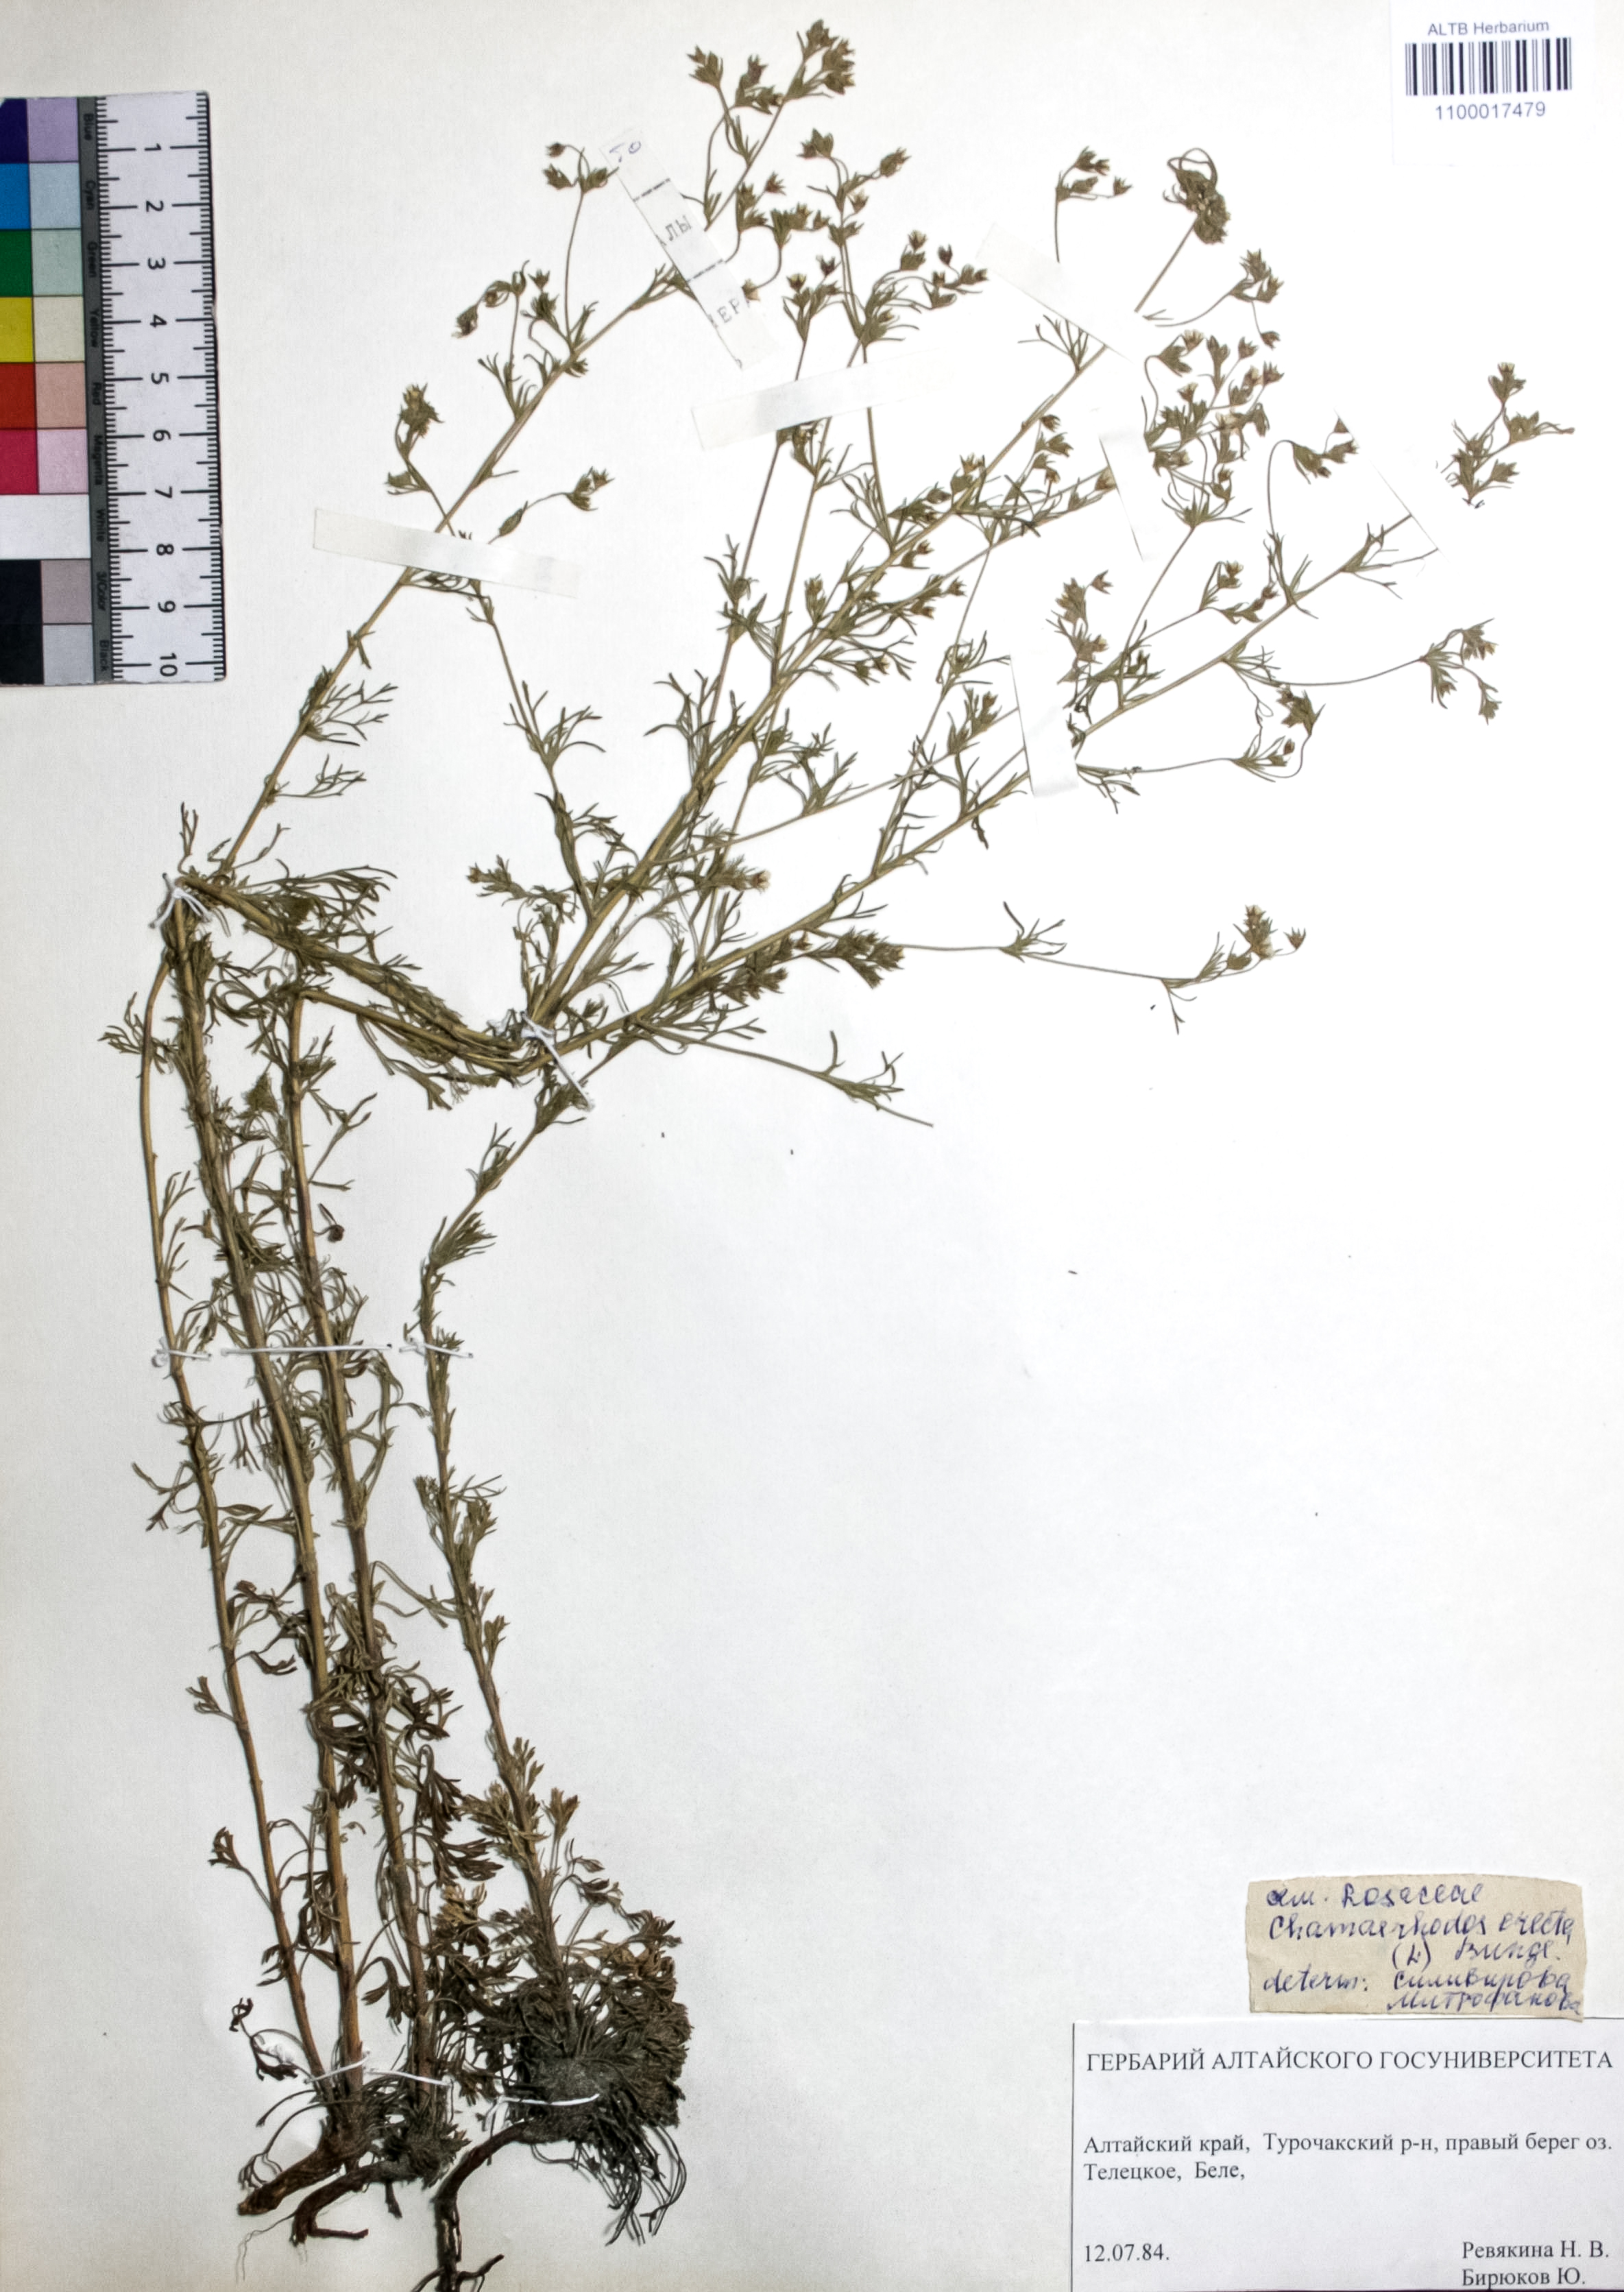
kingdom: Plantae
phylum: Tracheophyta
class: Magnoliopsida
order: Rosales
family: Rosaceae
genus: Chamaerhodos
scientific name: Chamaerhodos erecta
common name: American chamaerhodos
